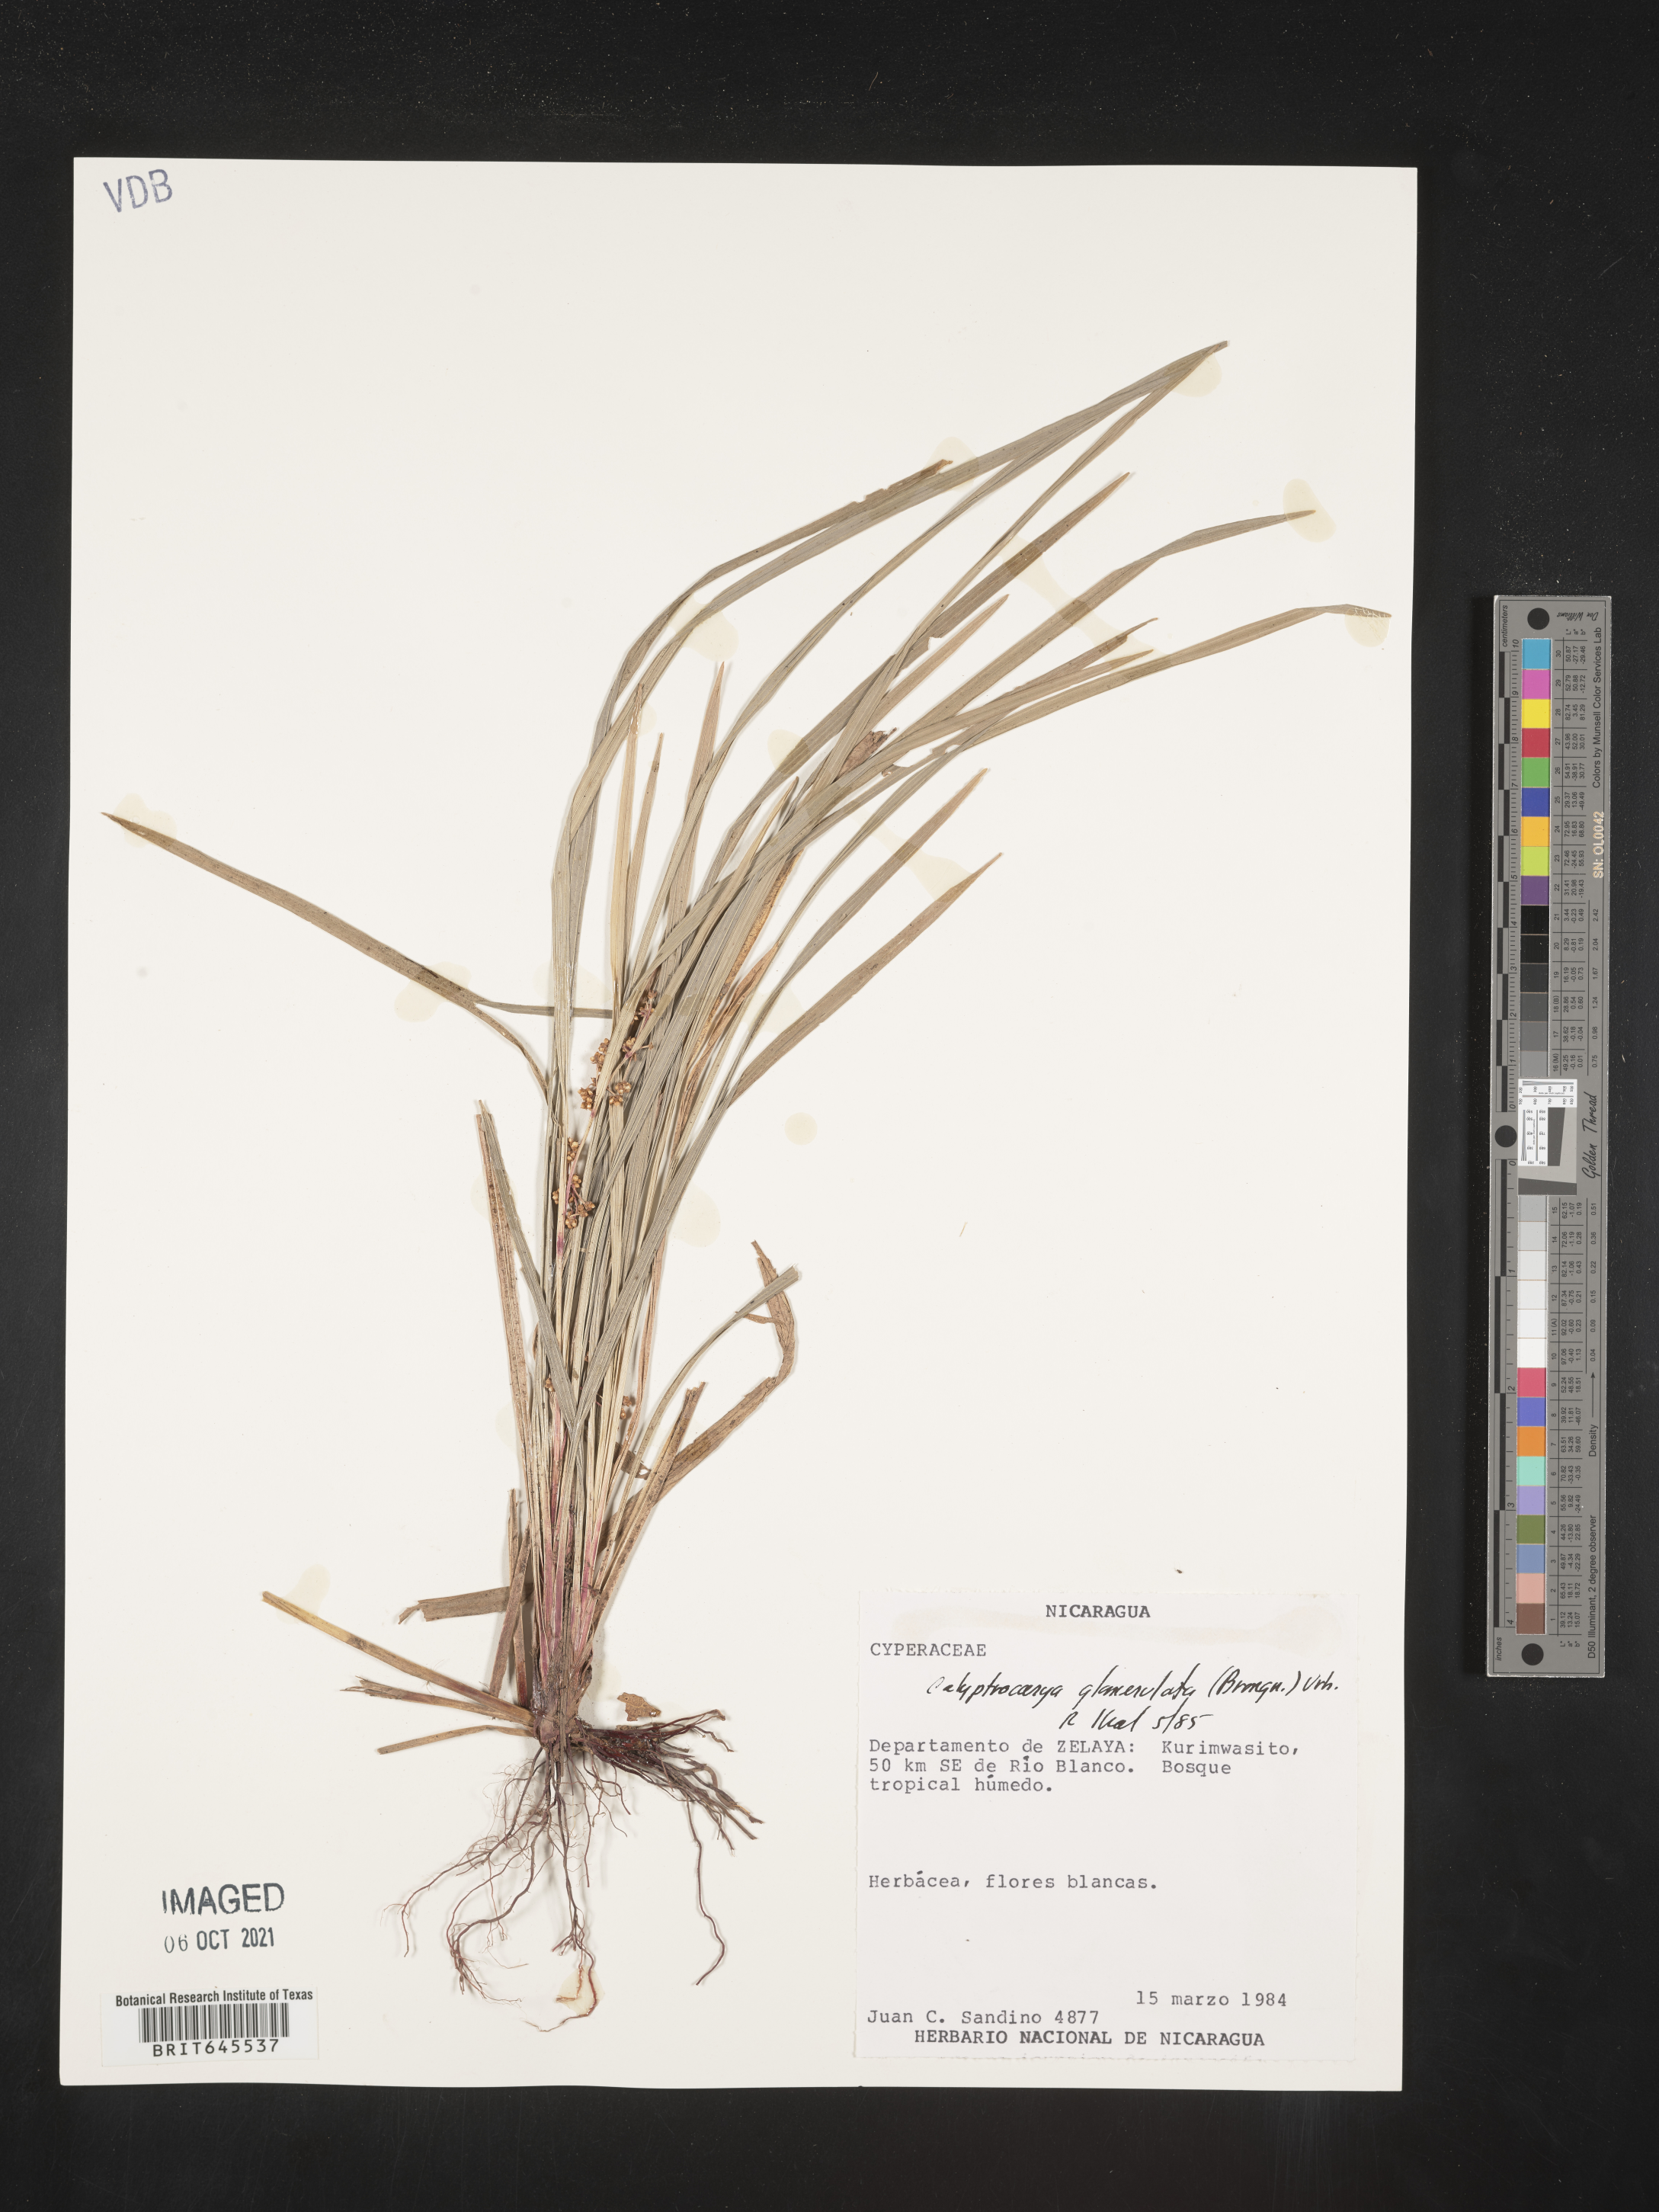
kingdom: Plantae
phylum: Tracheophyta
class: Liliopsida
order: Poales
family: Cyperaceae
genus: Calyptrocarya
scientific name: Calyptrocarya glomerulata
